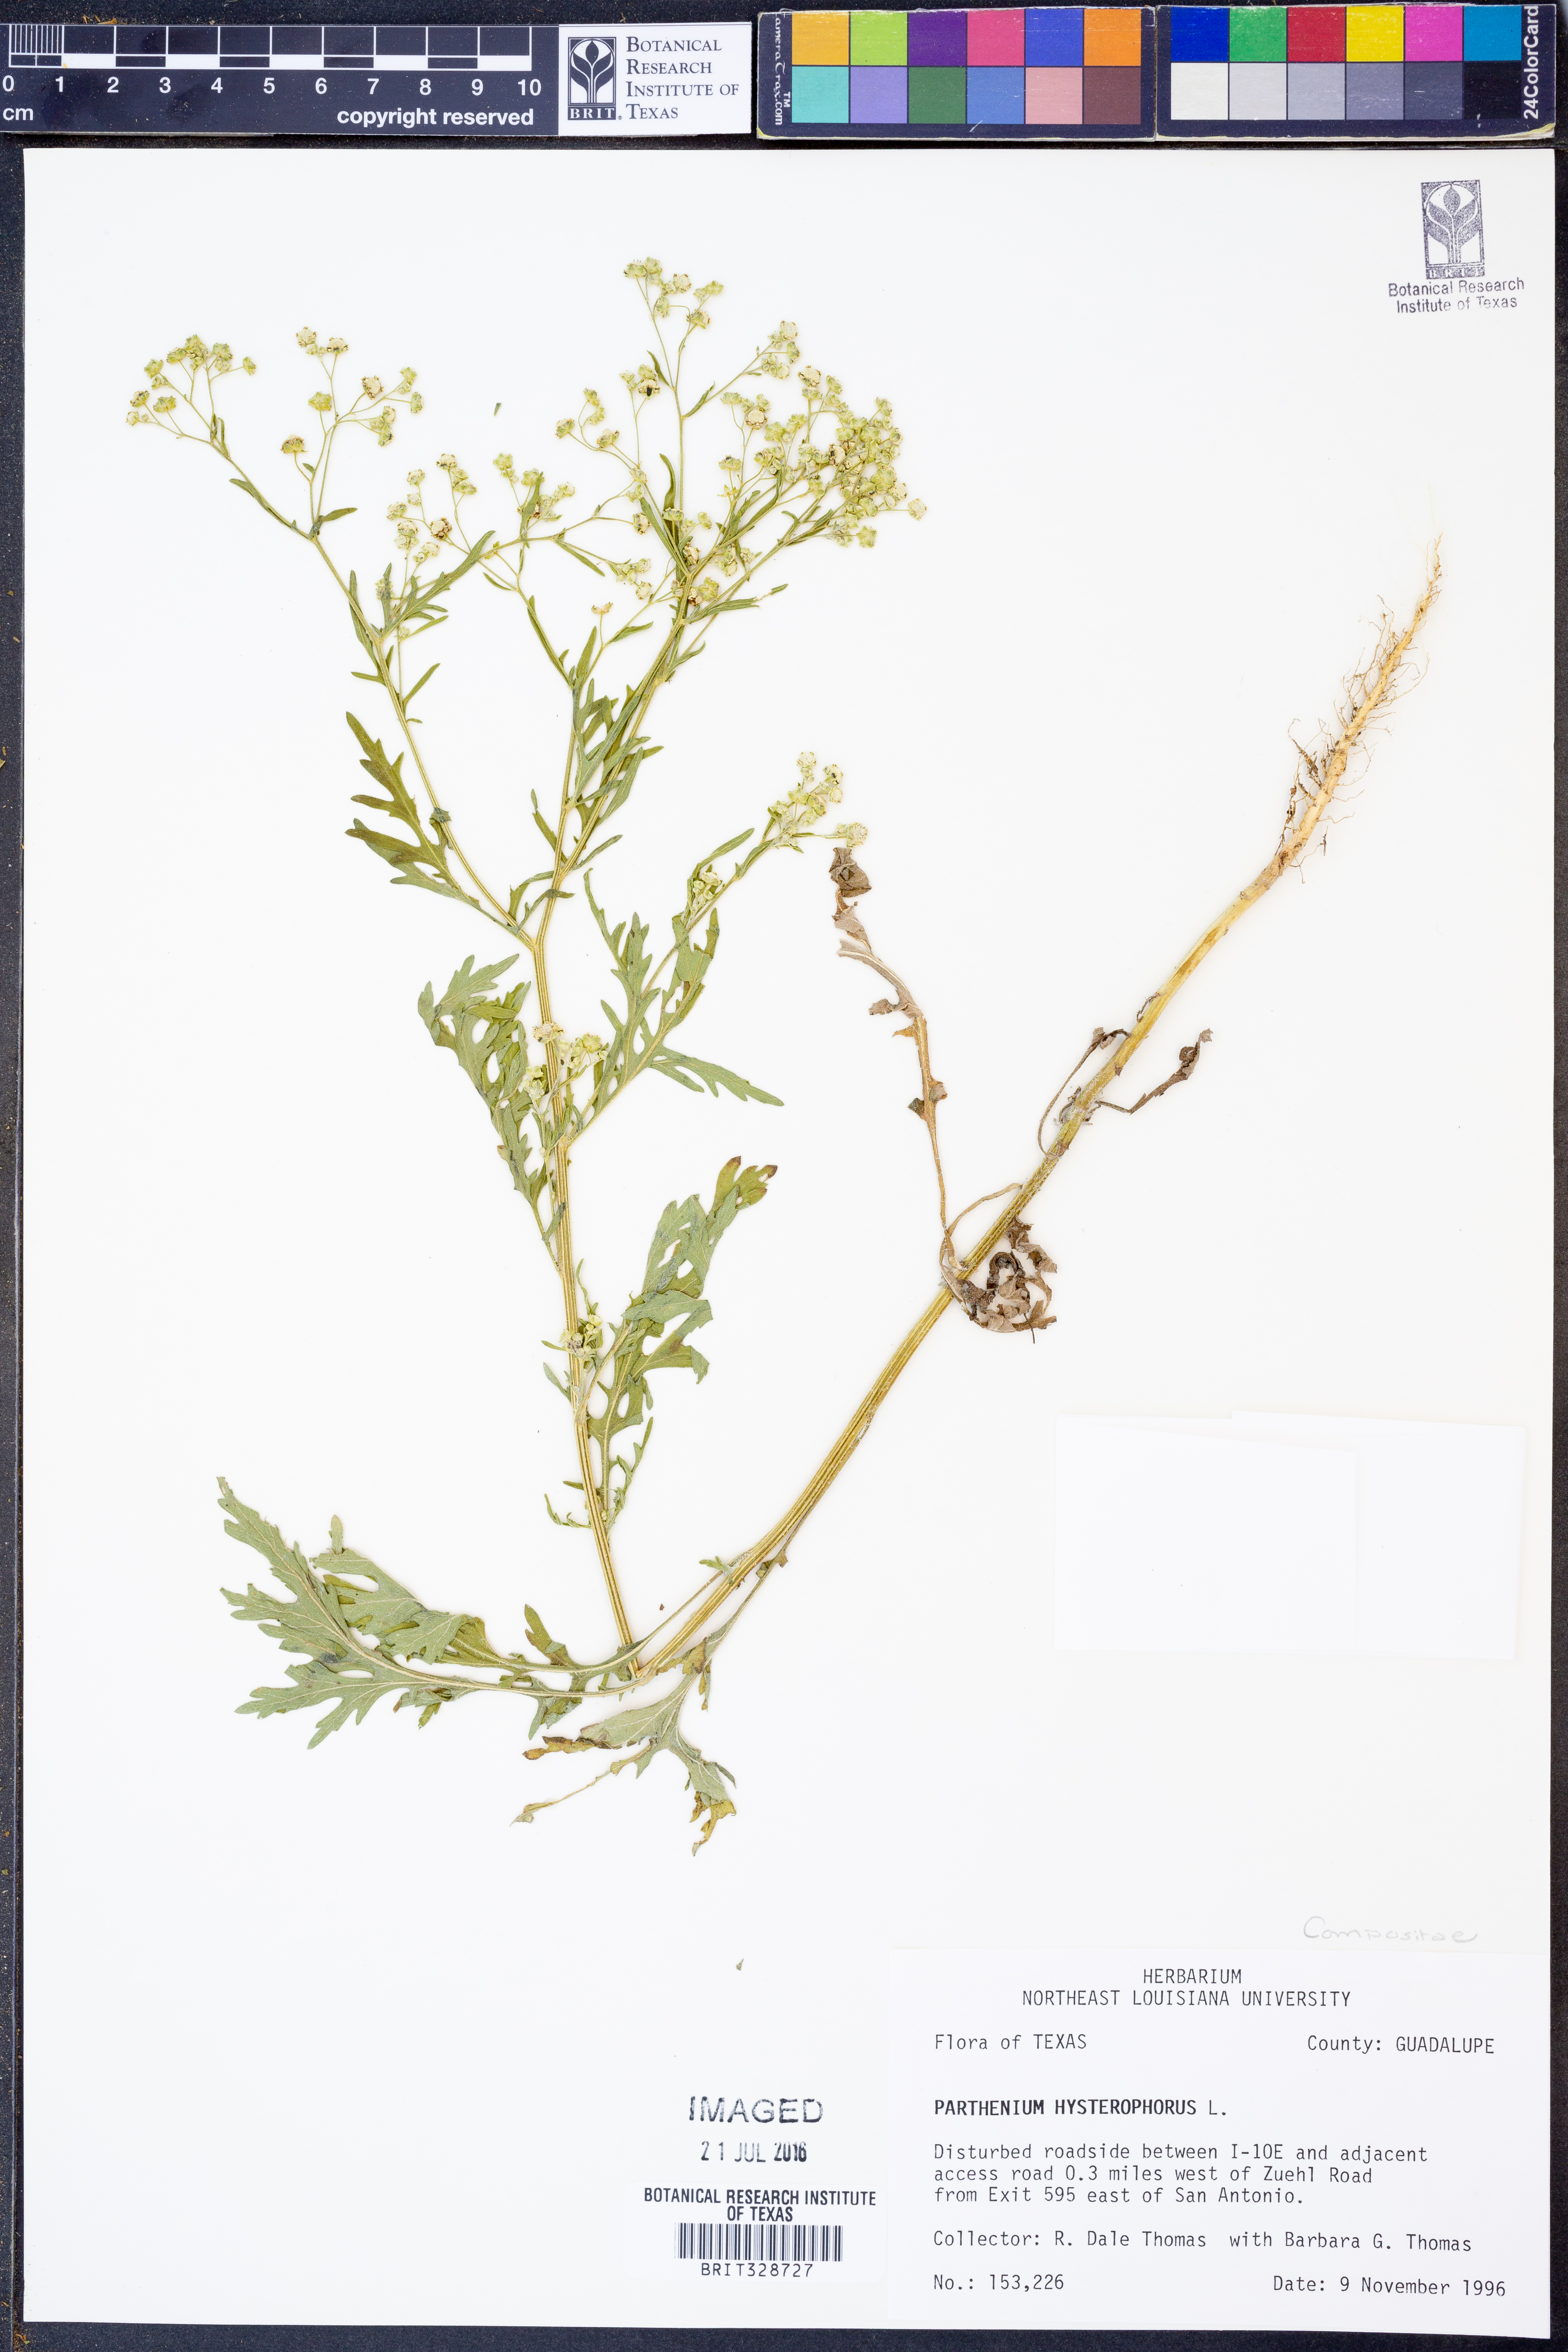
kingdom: Plantae
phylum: Tracheophyta
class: Magnoliopsida
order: Asterales
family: Asteraceae
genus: Parthenium
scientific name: Parthenium hysterophorus
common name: Santa maria feverfew
